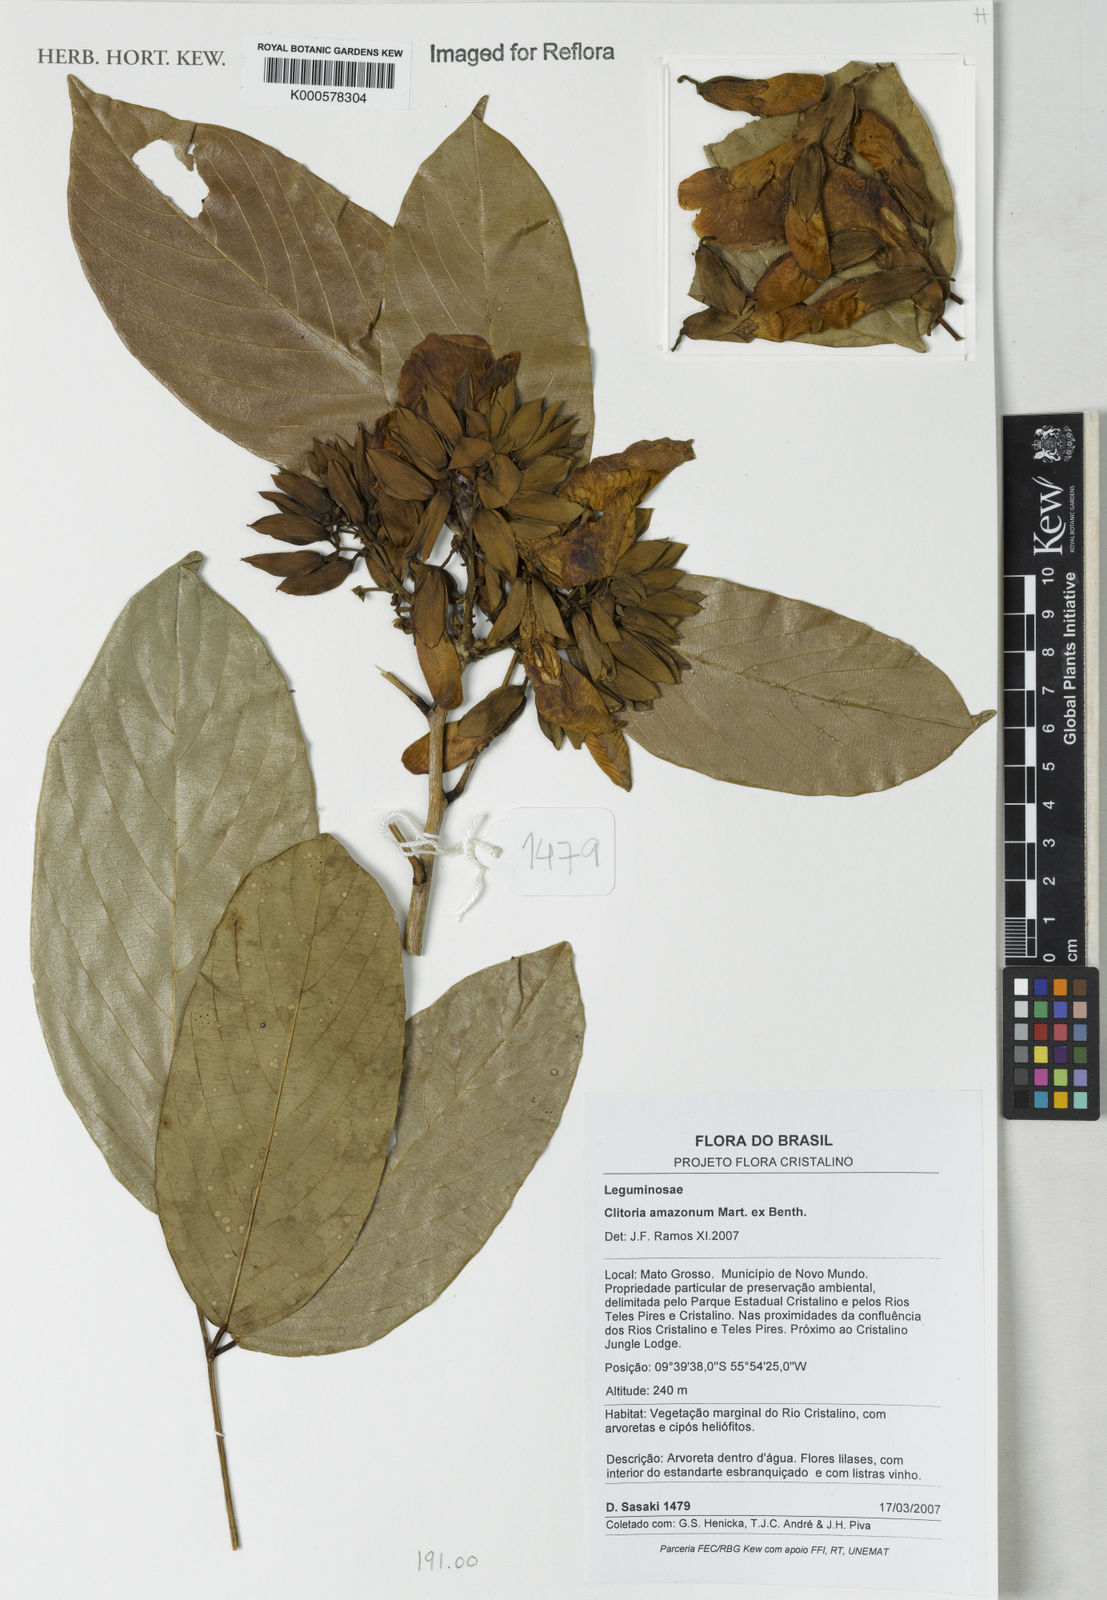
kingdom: Plantae
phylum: Tracheophyta
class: Magnoliopsida
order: Fabales
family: Fabaceae
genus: Clitoria
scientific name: Clitoria amazonum
